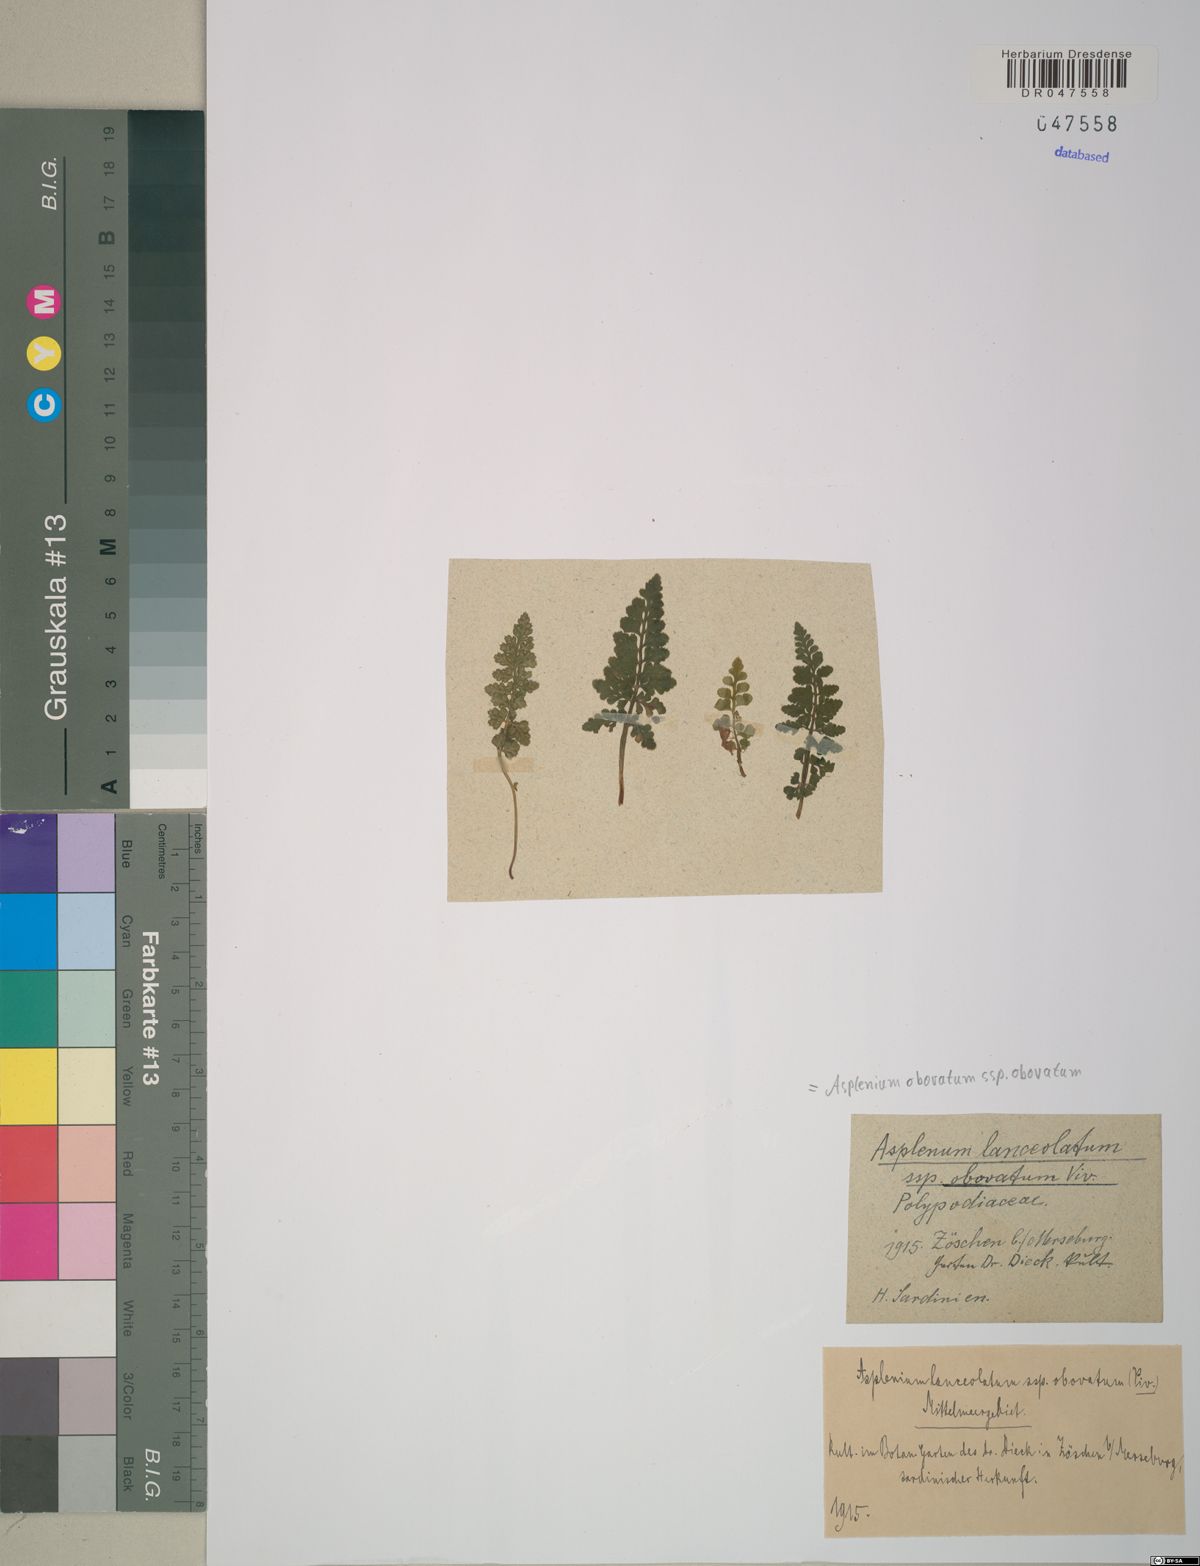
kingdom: Plantae
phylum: Tracheophyta
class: Polypodiopsida
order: Polypodiales
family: Aspleniaceae
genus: Asplenium
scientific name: Asplenium obovatum
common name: Lanceolate spleenwort
